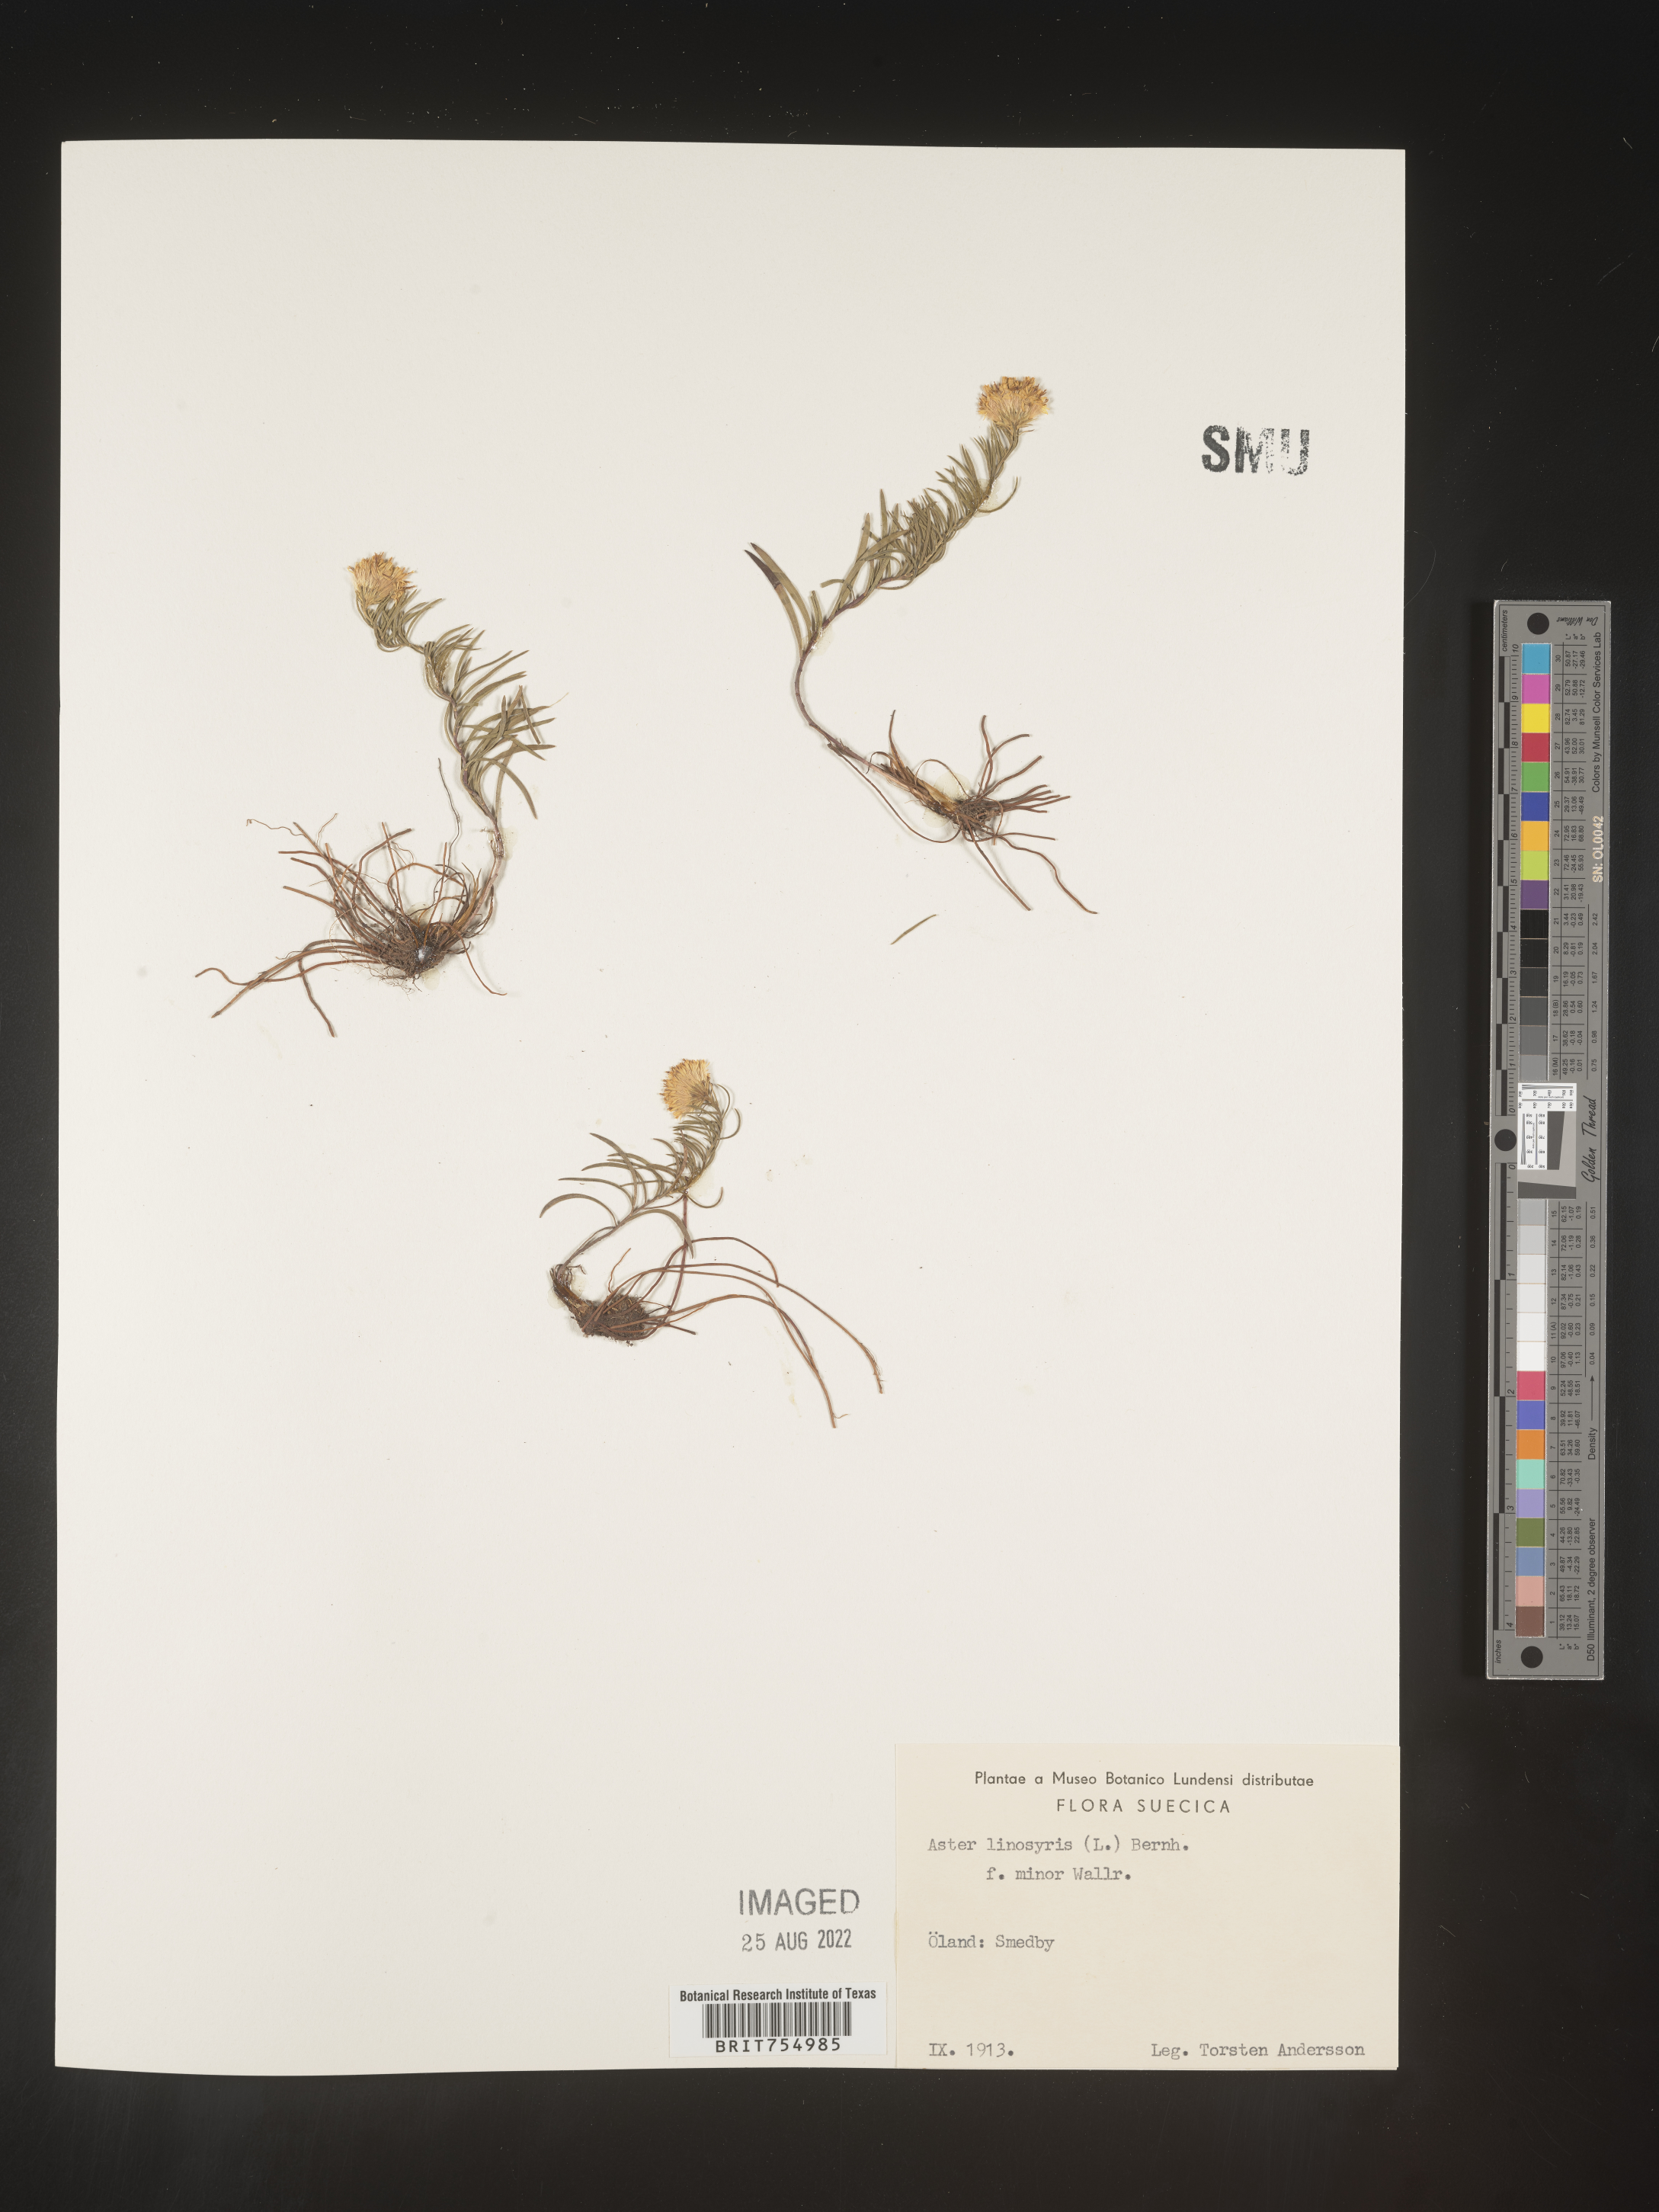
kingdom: Plantae
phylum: Tracheophyta
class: Magnoliopsida
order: Asterales
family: Asteraceae
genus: Symphyotrichum
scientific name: Symphyotrichum
